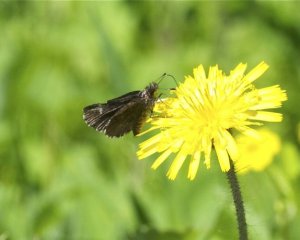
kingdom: Animalia
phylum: Arthropoda
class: Insecta
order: Lepidoptera
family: Hesperiidae
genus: Mastor
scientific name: Mastor vialis
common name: Common Roadside-Skipper
